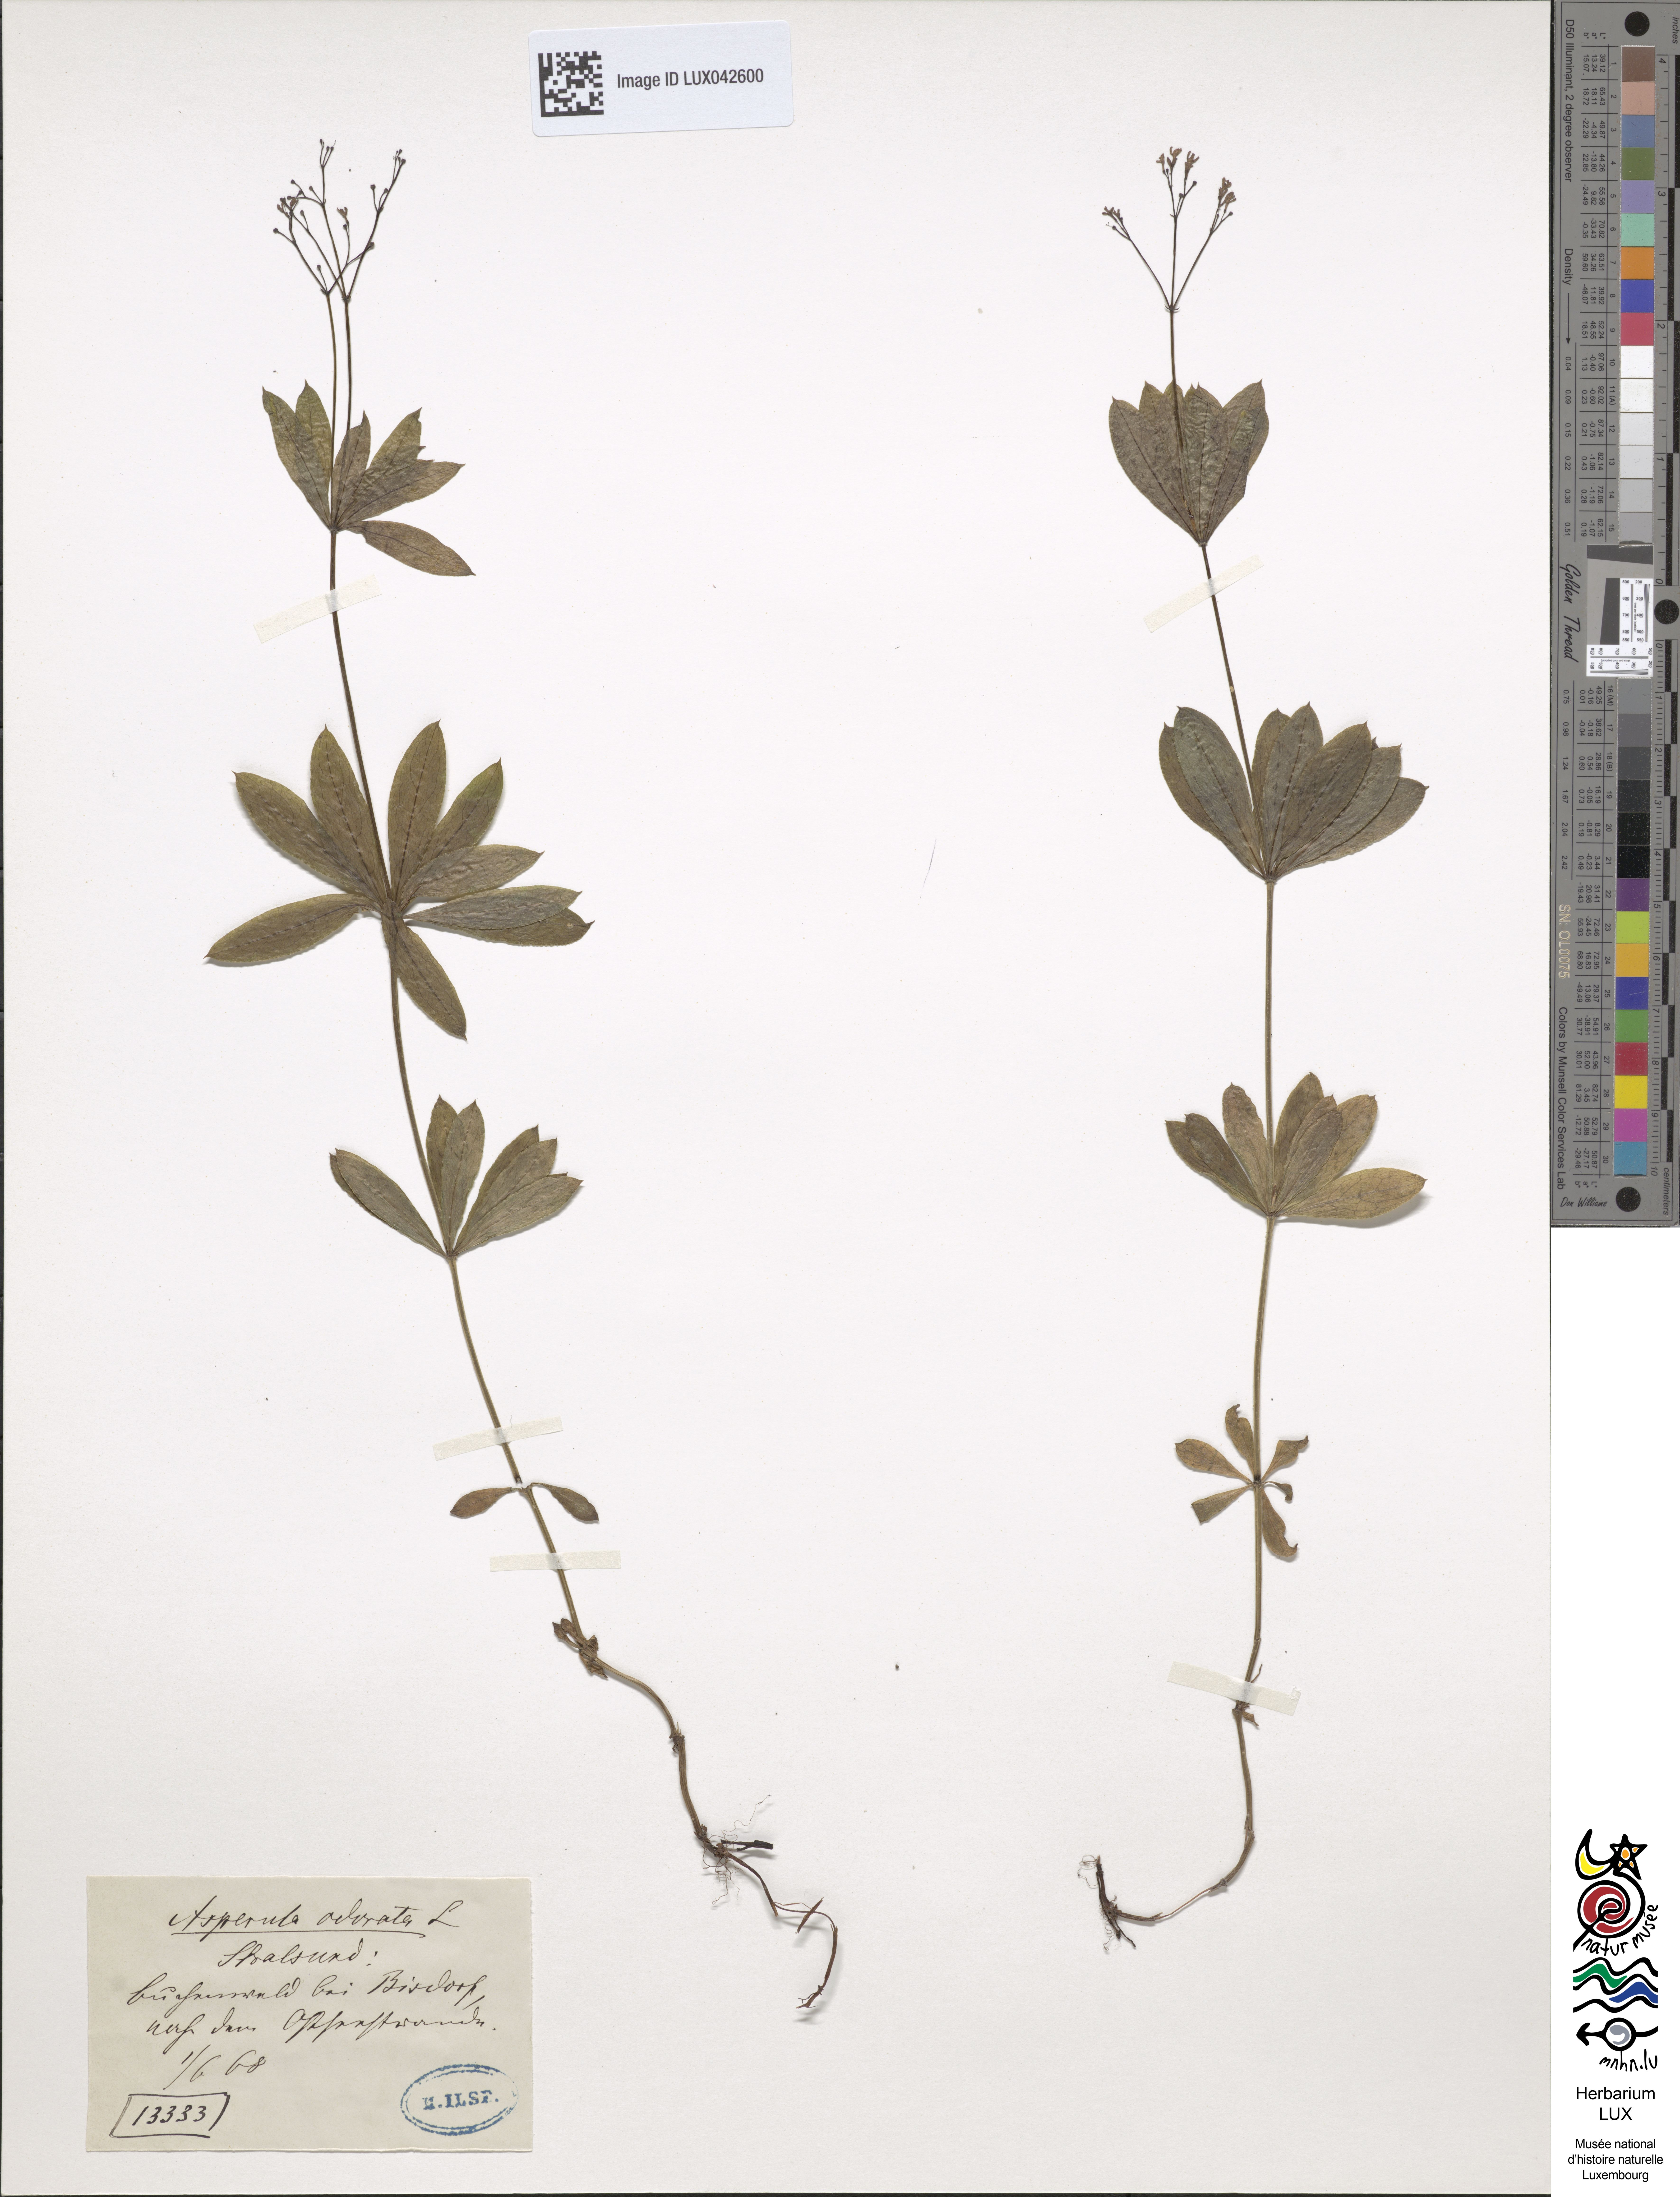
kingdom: Plantae
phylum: Tracheophyta
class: Magnoliopsida
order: Gentianales
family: Rubiaceae
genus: Galium
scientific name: Galium odoratum
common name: Sweet woodruff
